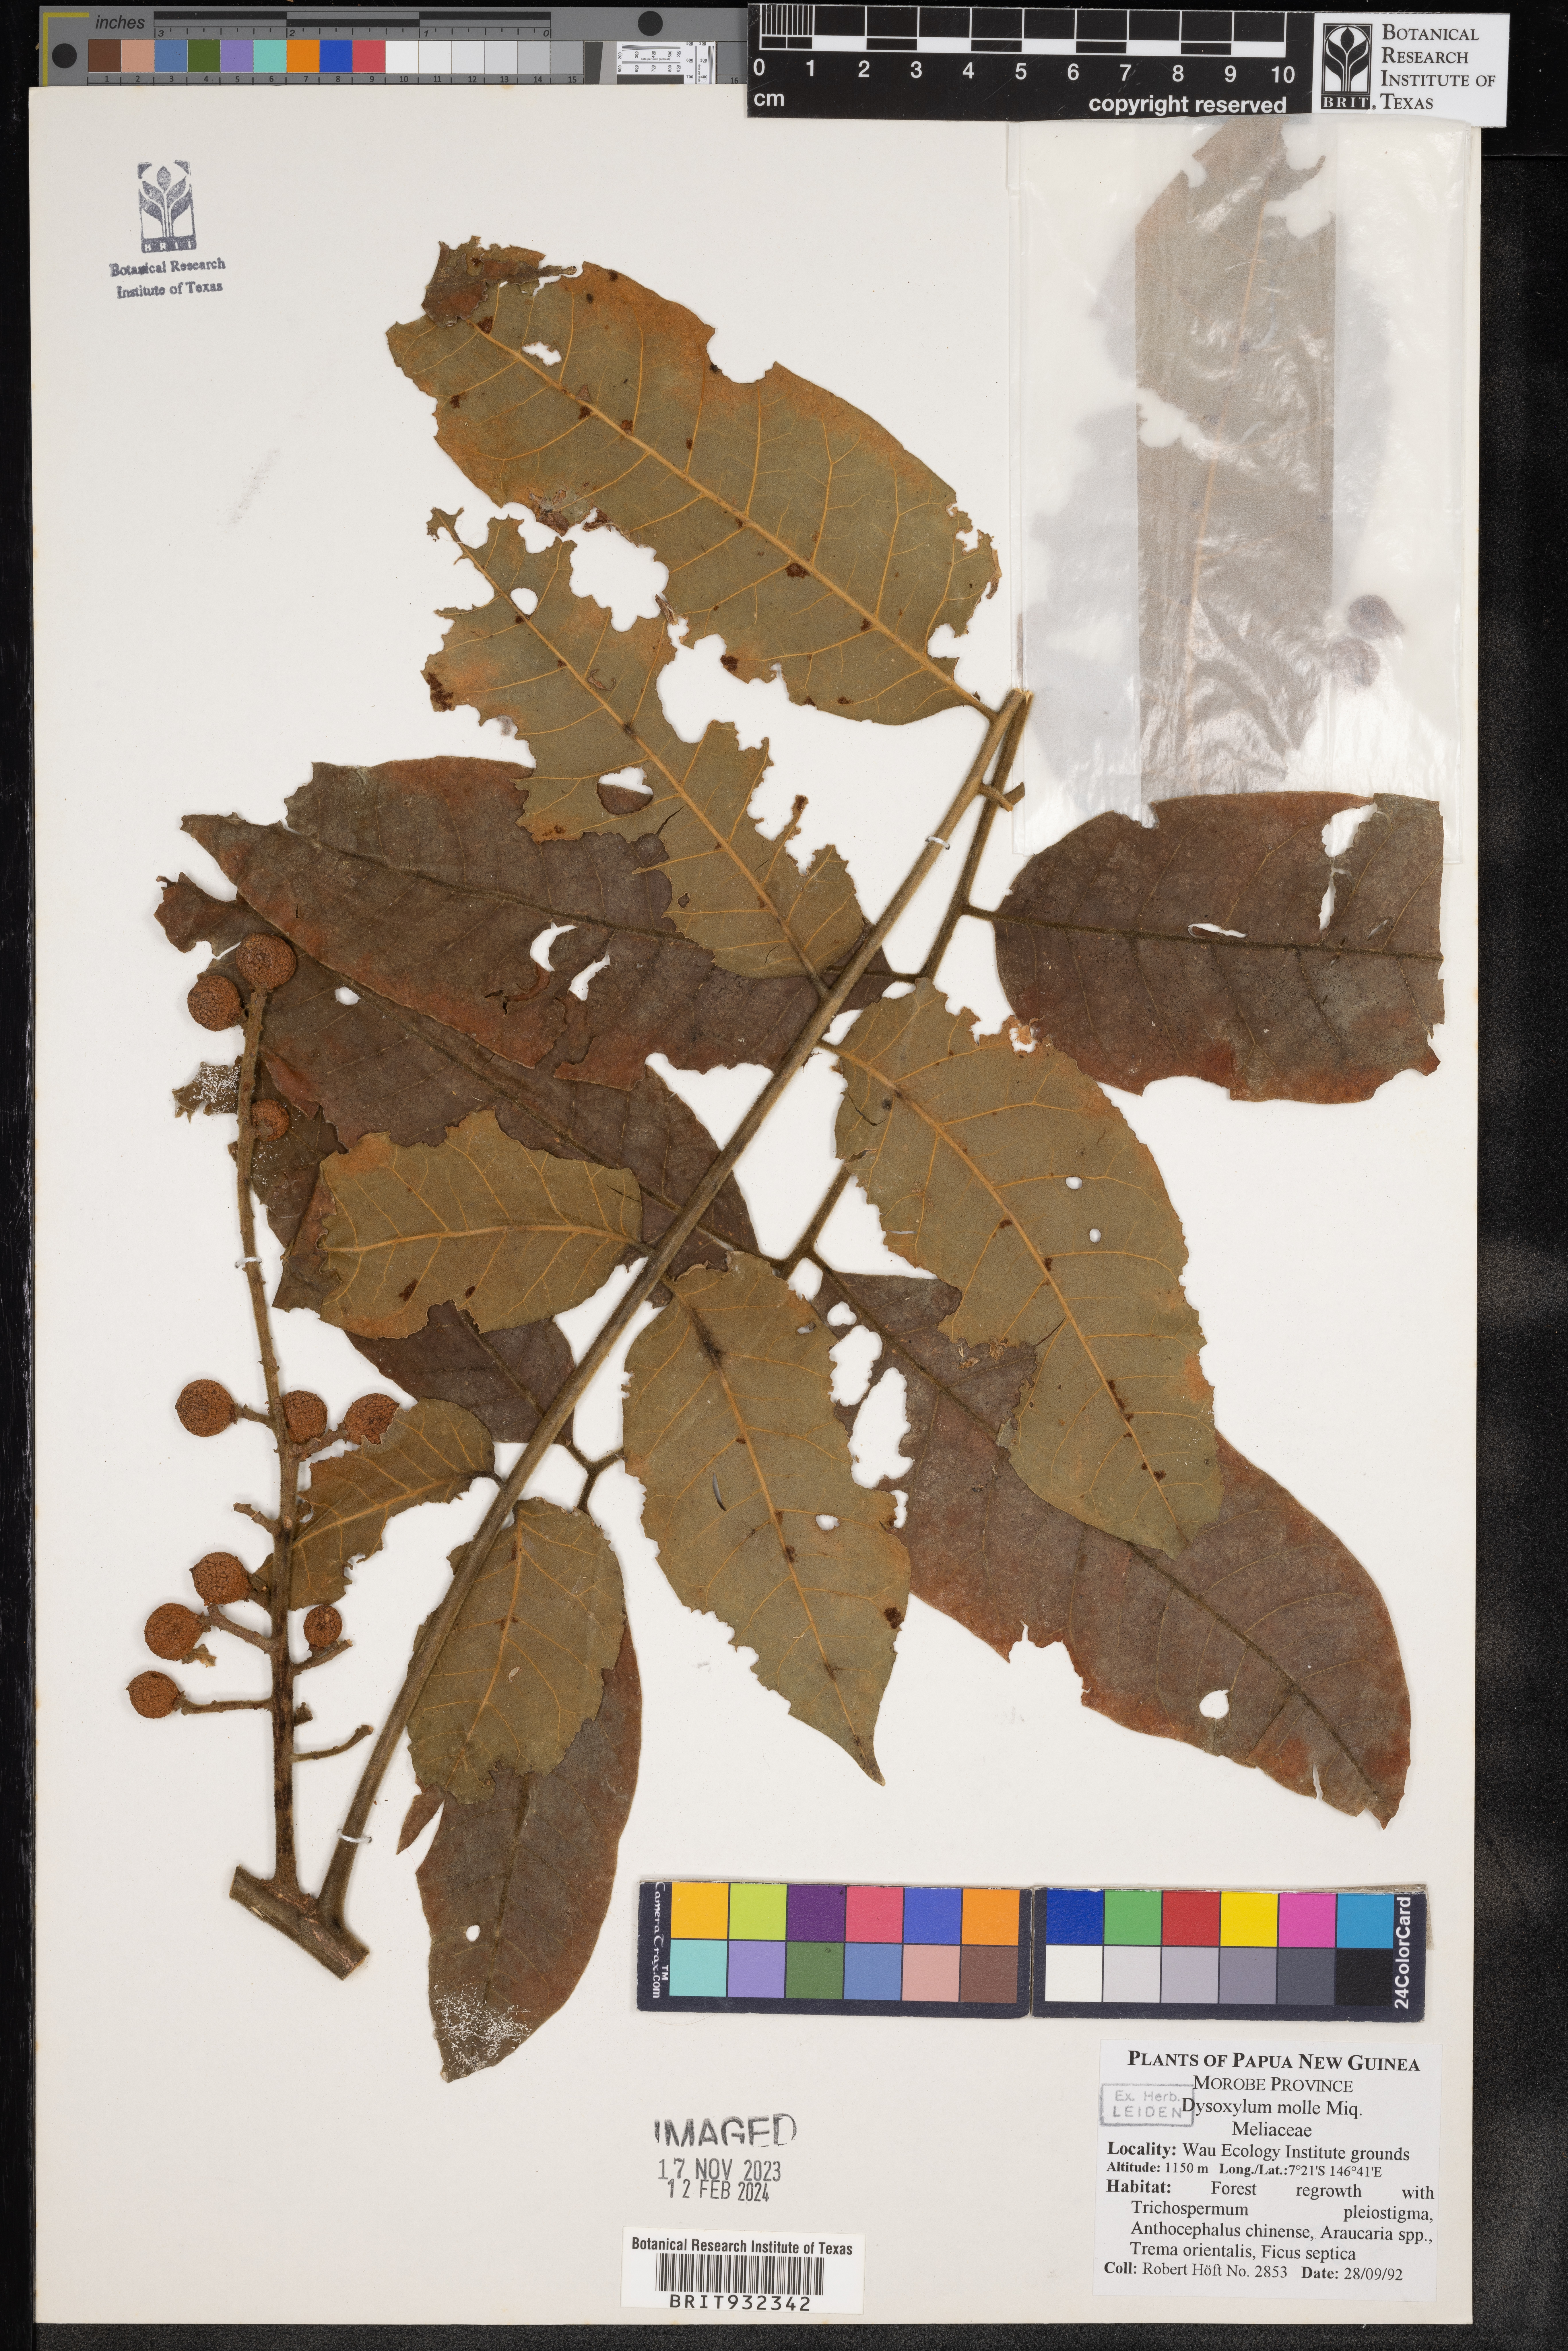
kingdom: Plantae
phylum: Tracheophyta
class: Magnoliopsida
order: Sapindales
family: Meliaceae
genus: Dysoxylum
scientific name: Dysoxylum
